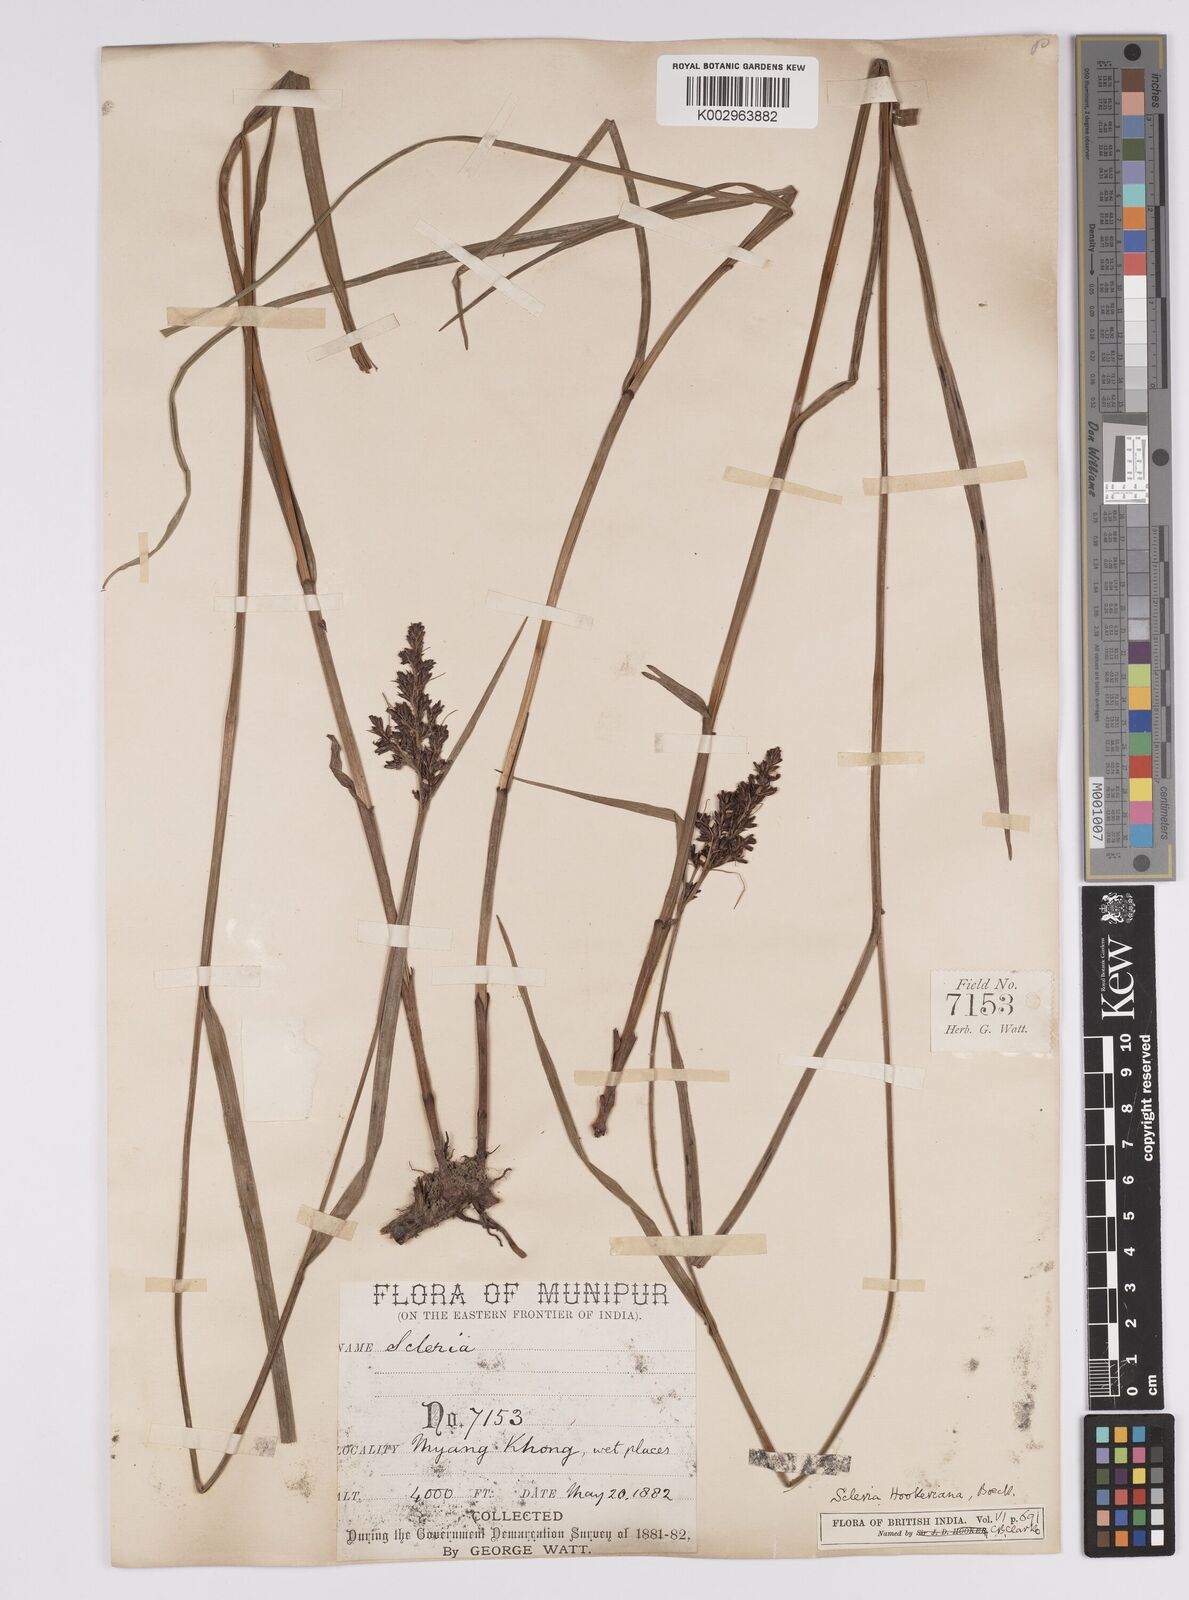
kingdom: Plantae
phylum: Tracheophyta
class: Liliopsida
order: Poales
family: Cyperaceae
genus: Scleria
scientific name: Scleria terrestris
